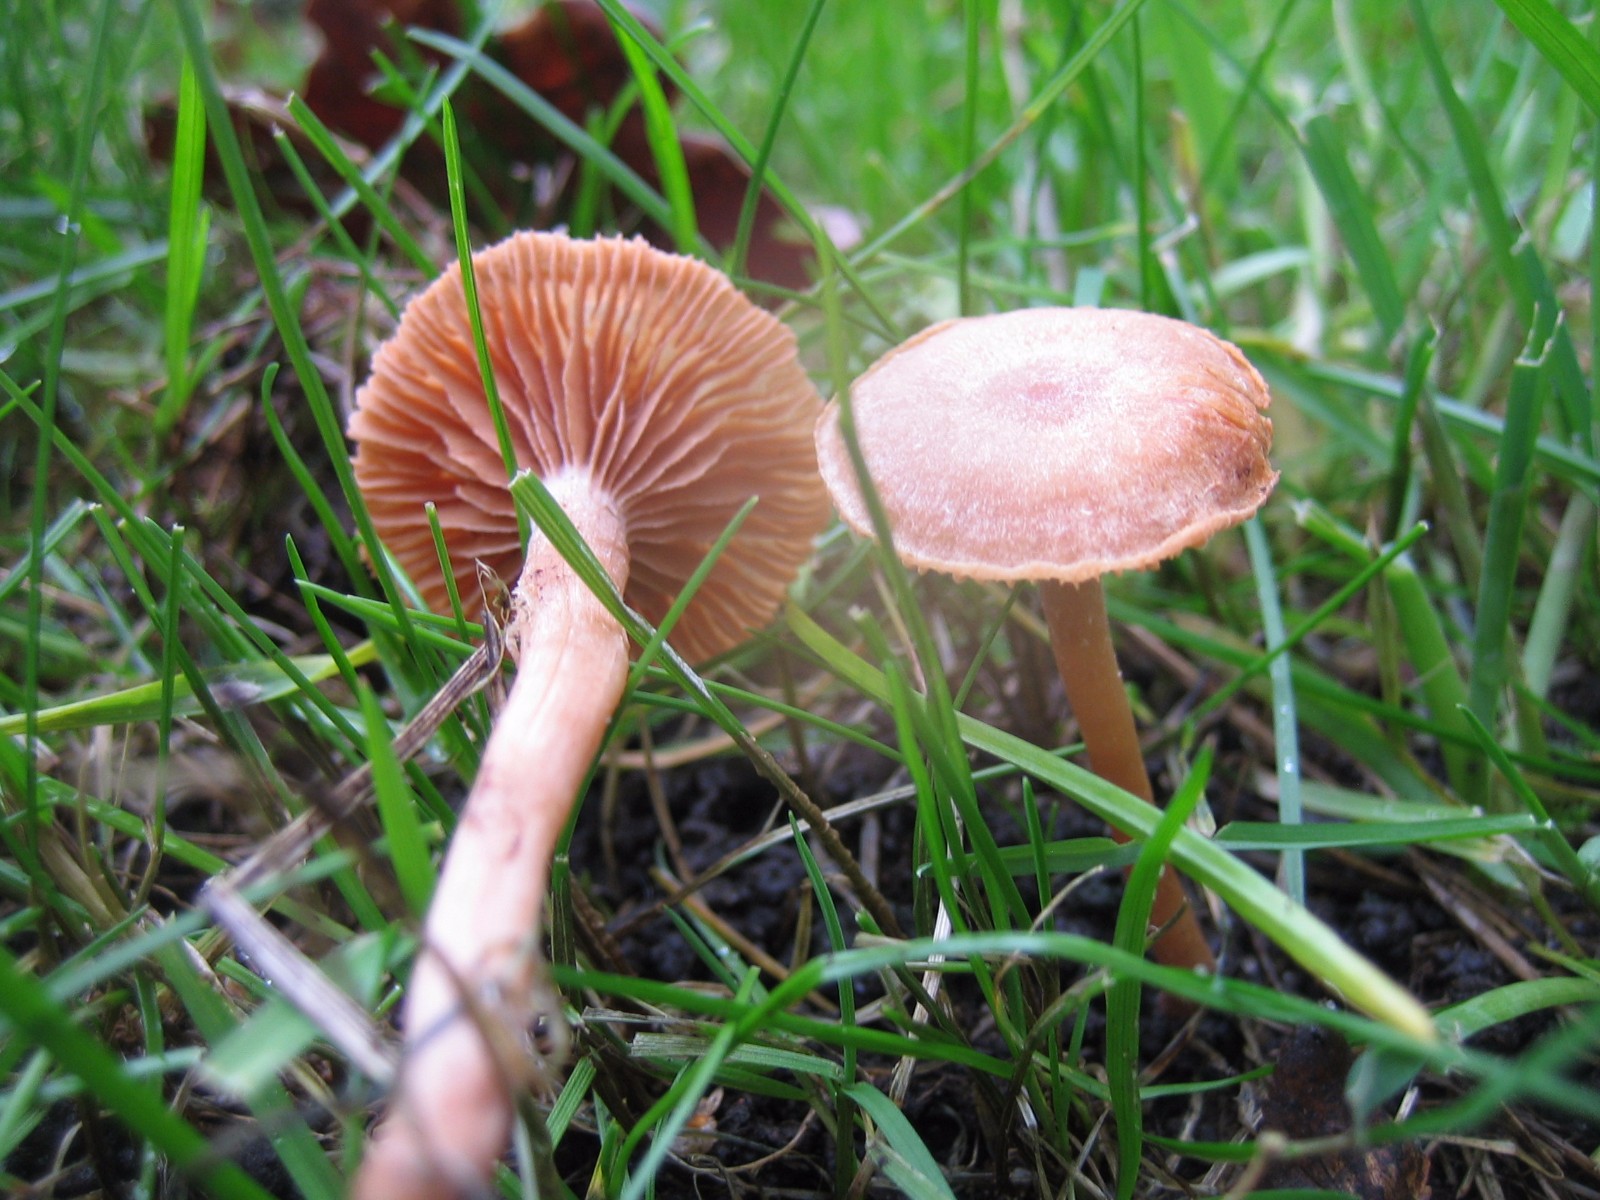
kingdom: Fungi
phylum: Basidiomycota
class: Agaricomycetes
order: Agaricales
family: Tubariaceae
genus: Tubaria
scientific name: Tubaria
